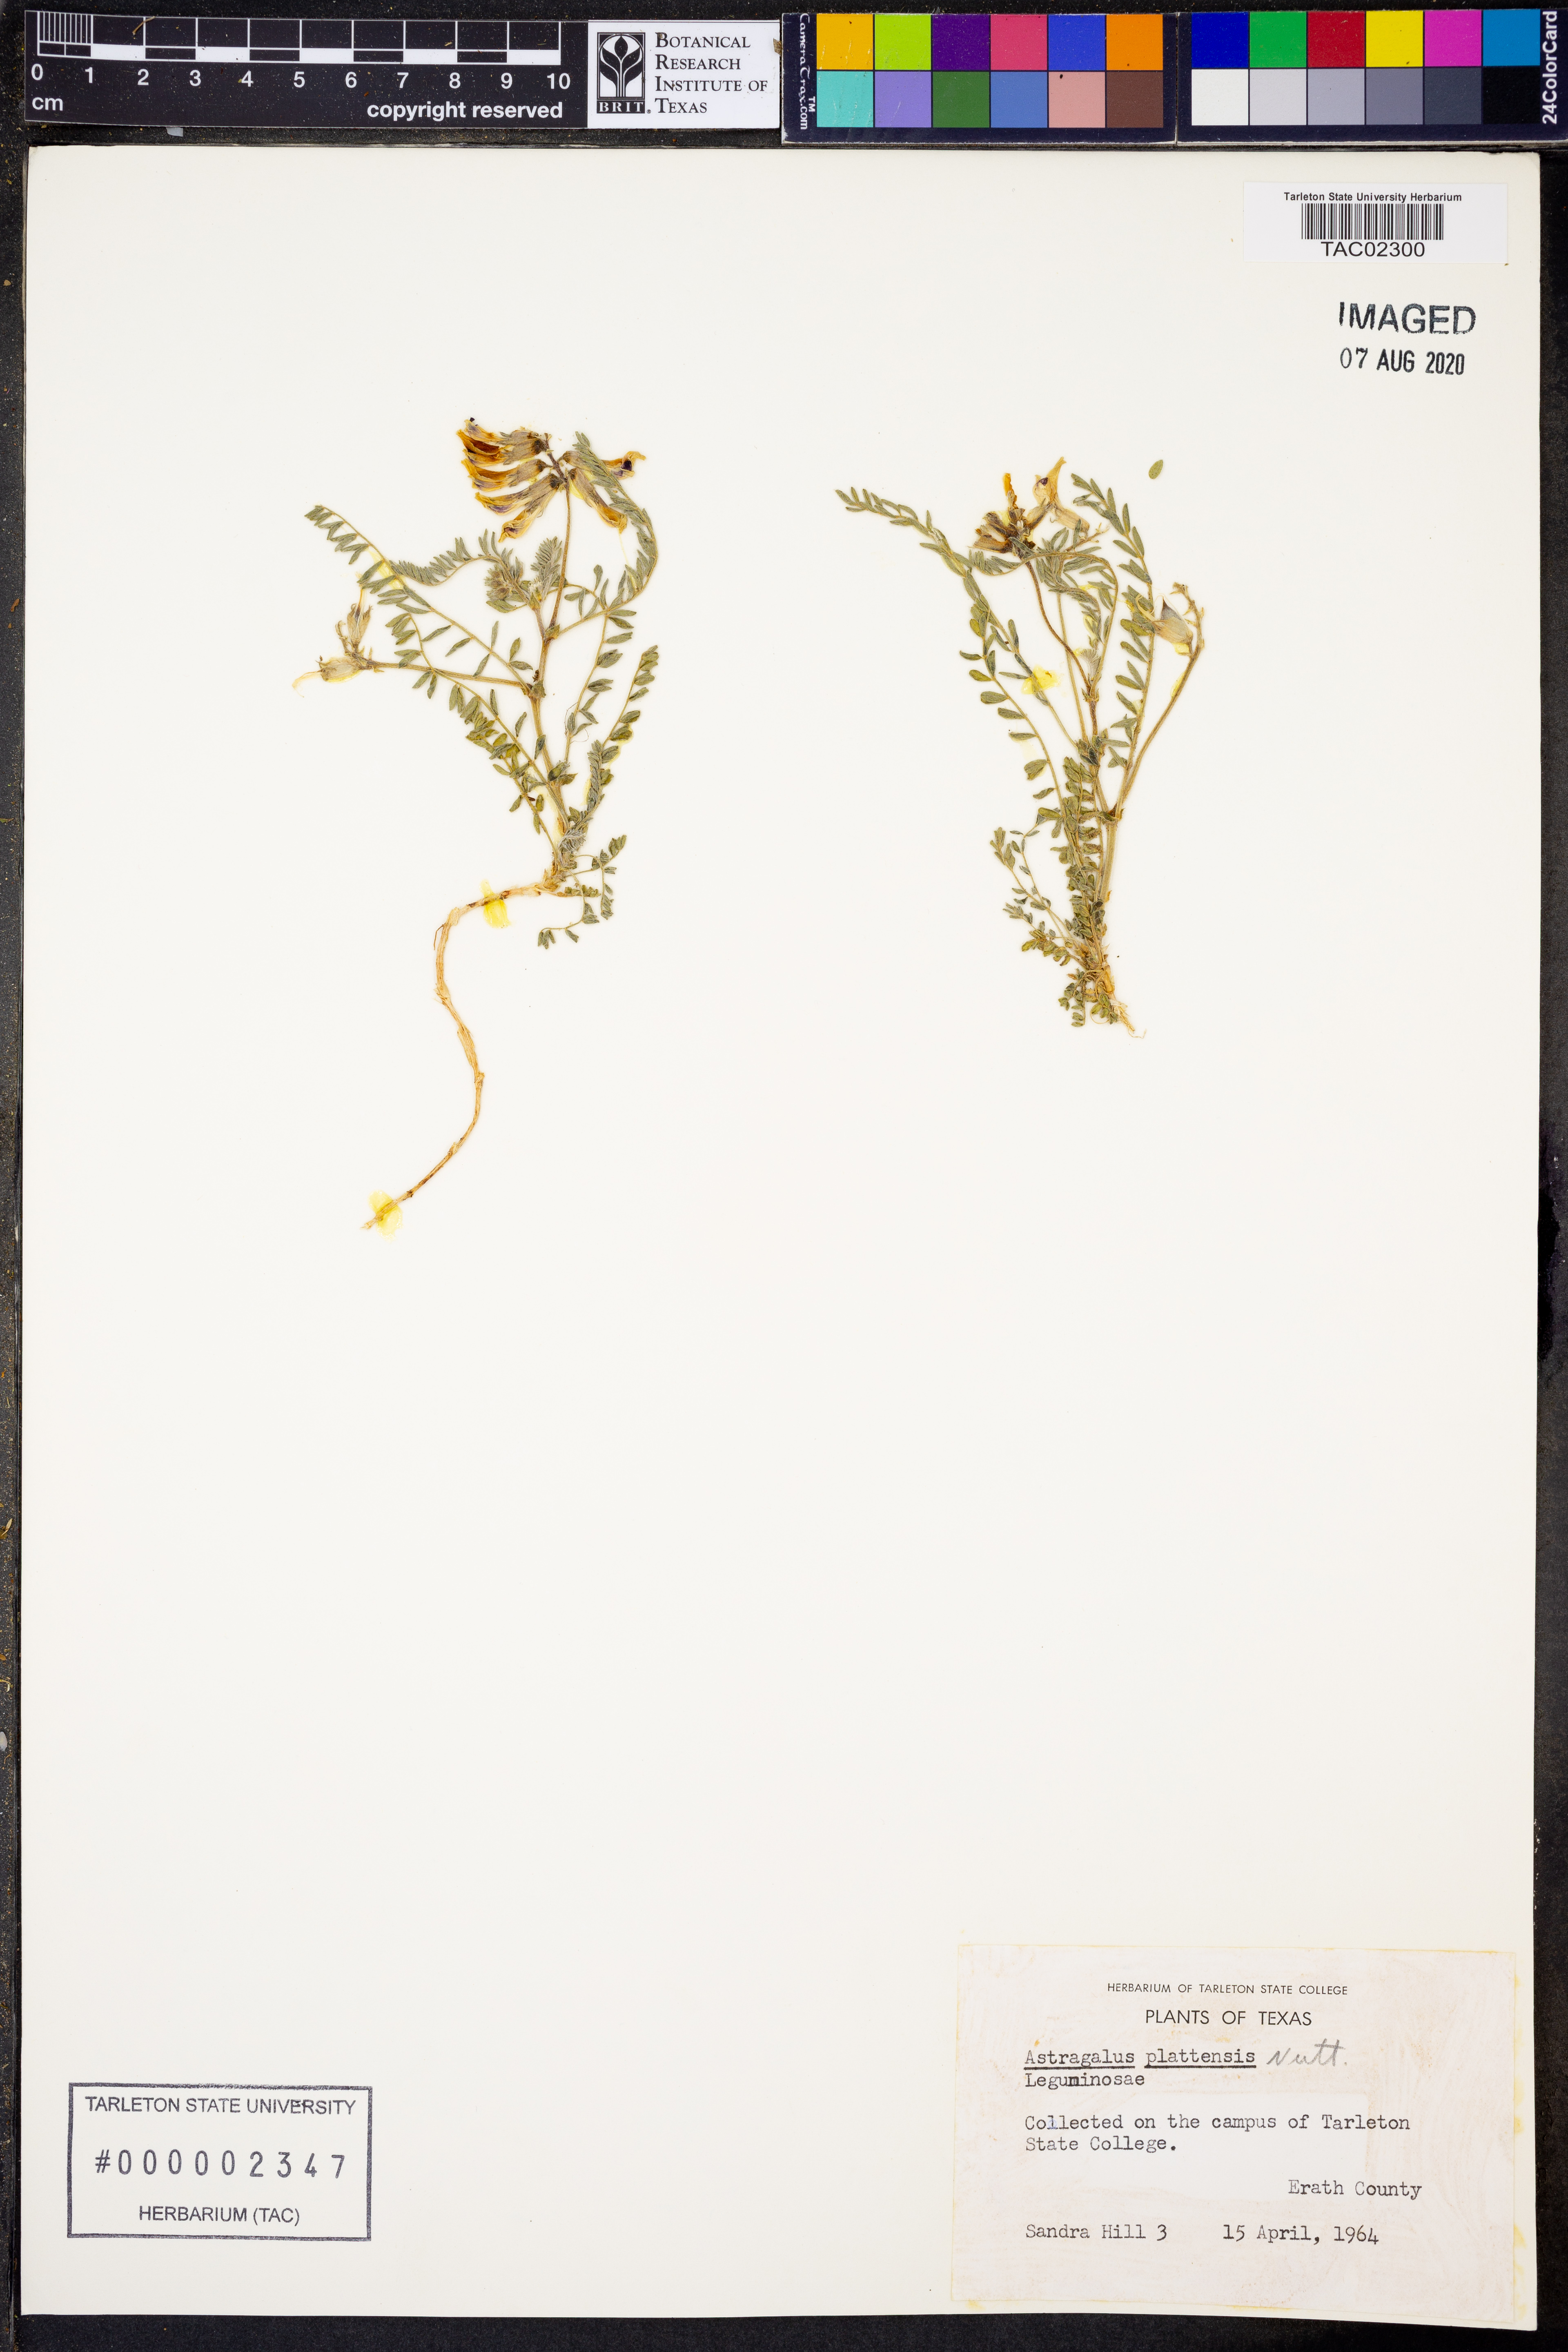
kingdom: Plantae
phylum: Tracheophyta
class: Magnoliopsida
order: Fabales
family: Fabaceae
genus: Astragalus
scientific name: Astragalus plattensis
